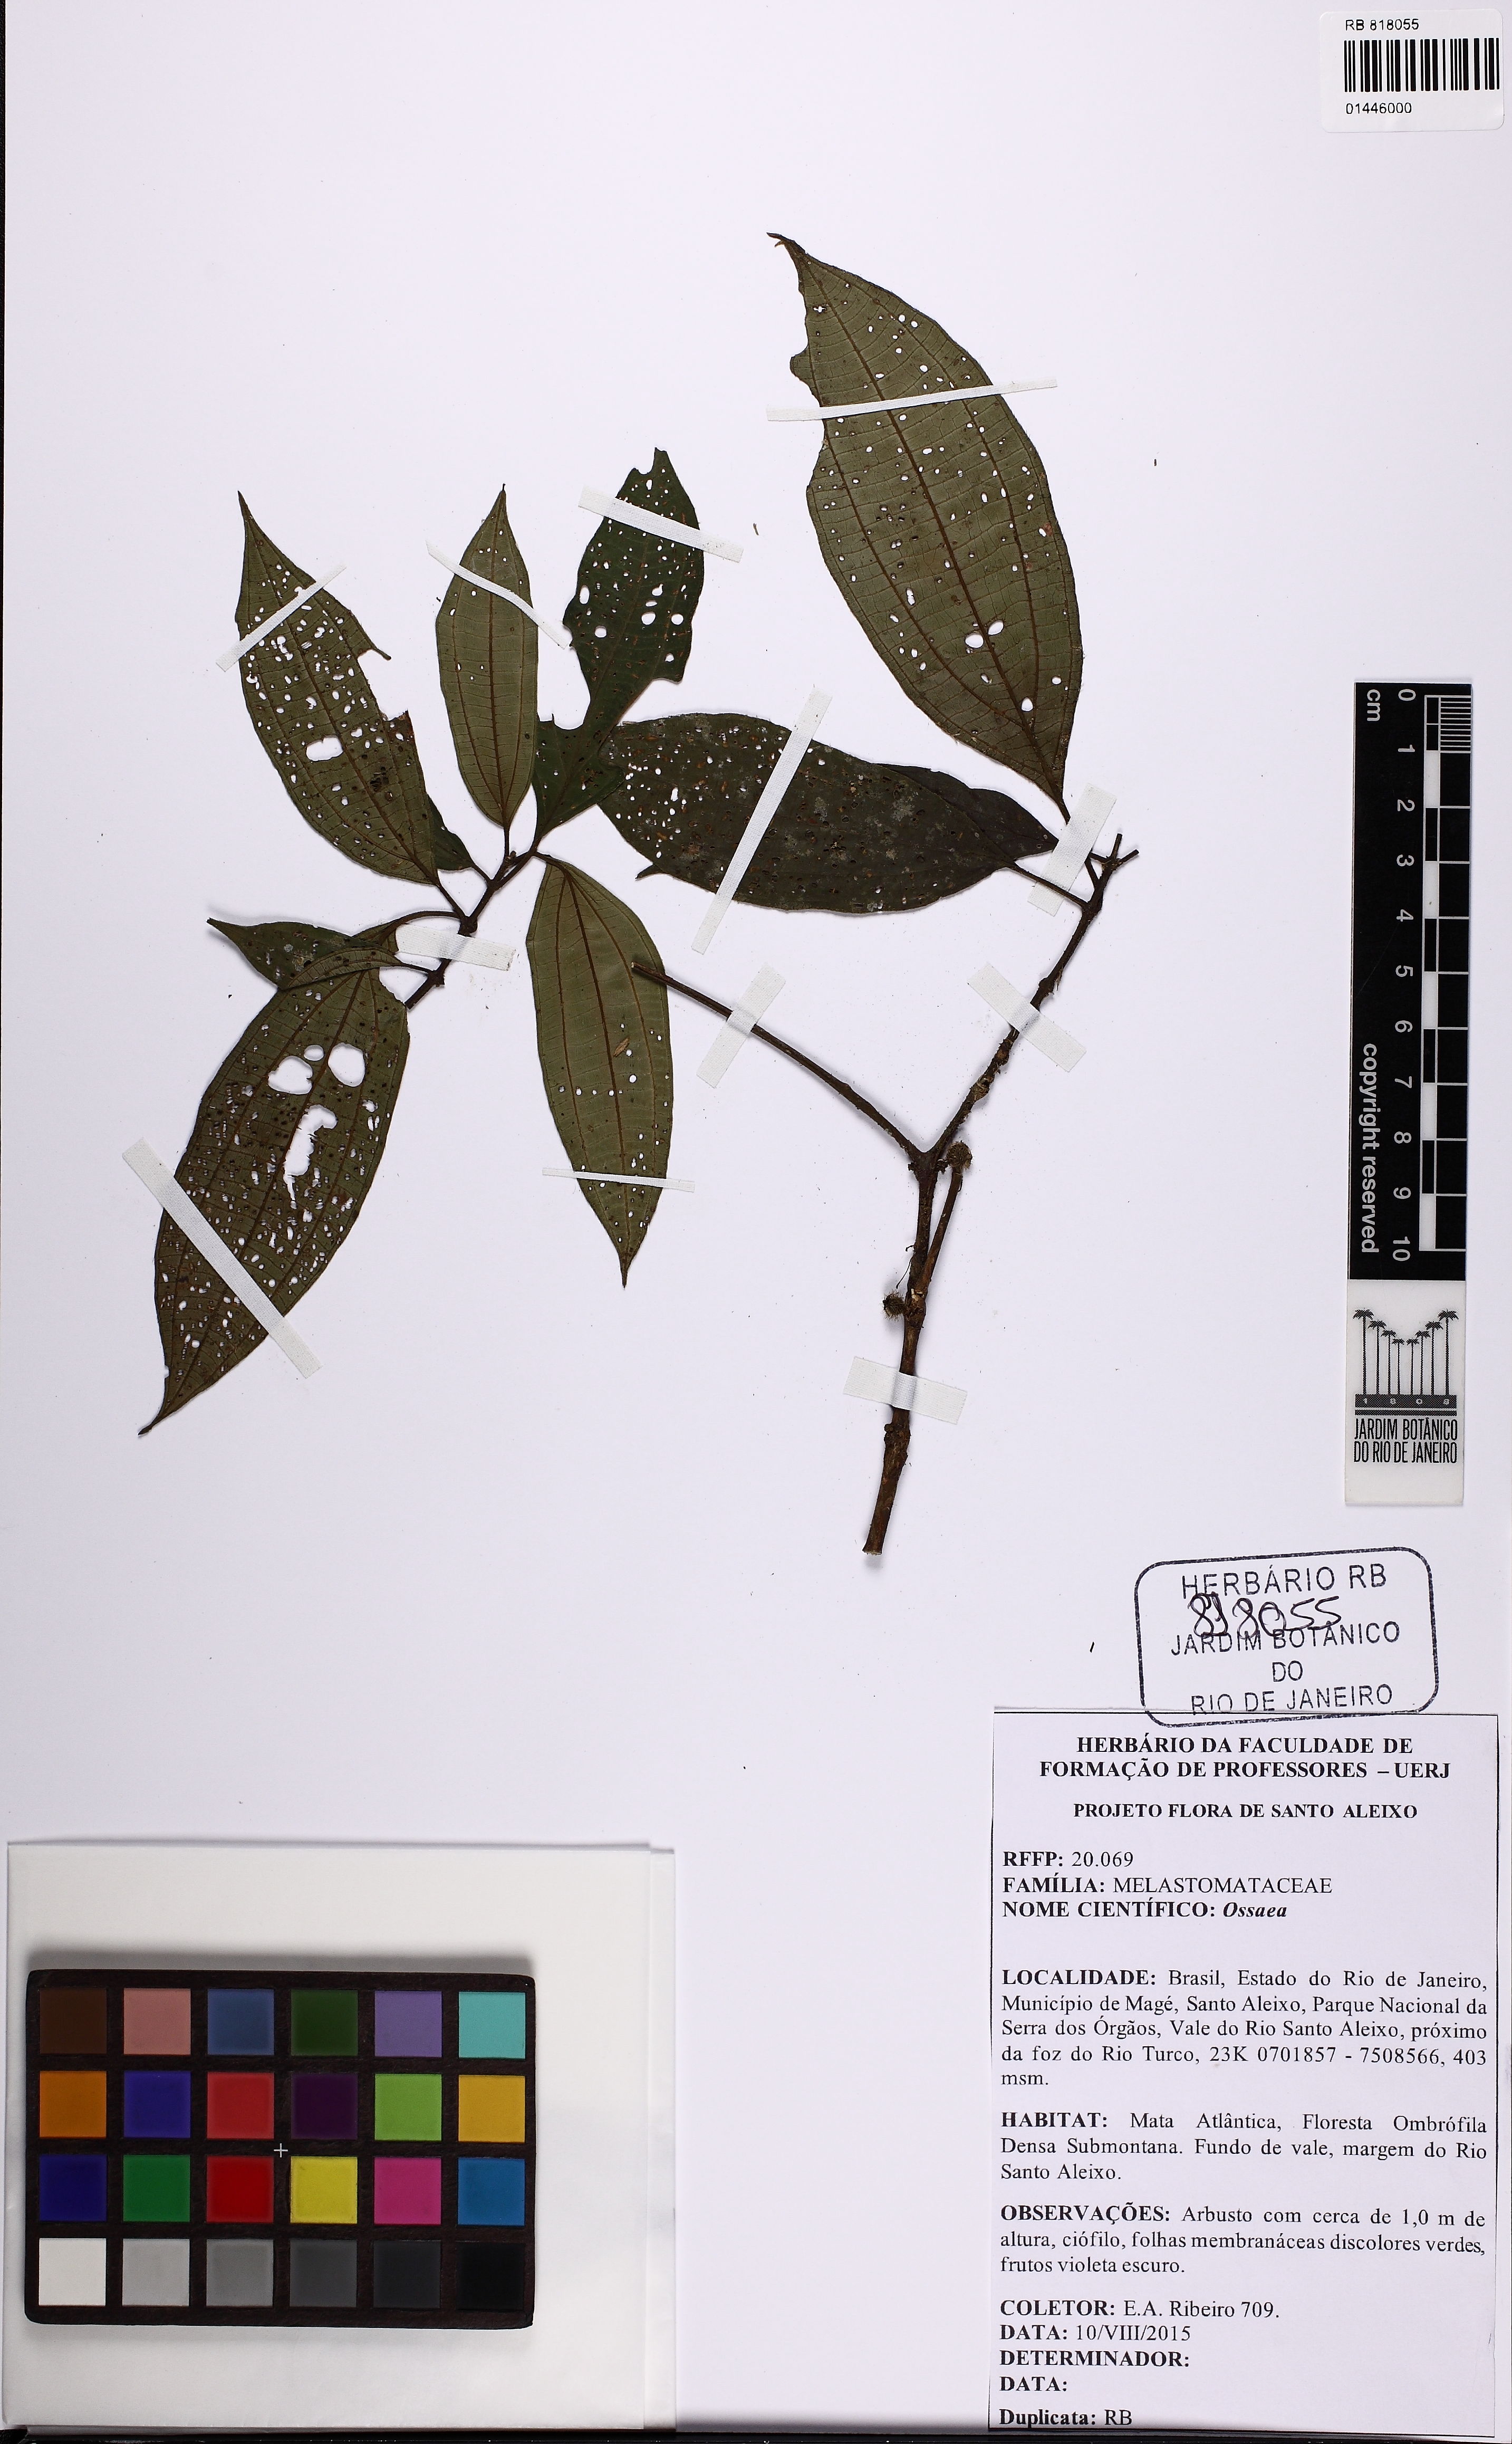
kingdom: Plantae
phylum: Tracheophyta
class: Magnoliopsida
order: Myrtales
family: Melastomataceae
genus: Ossaea
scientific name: Ossaea
